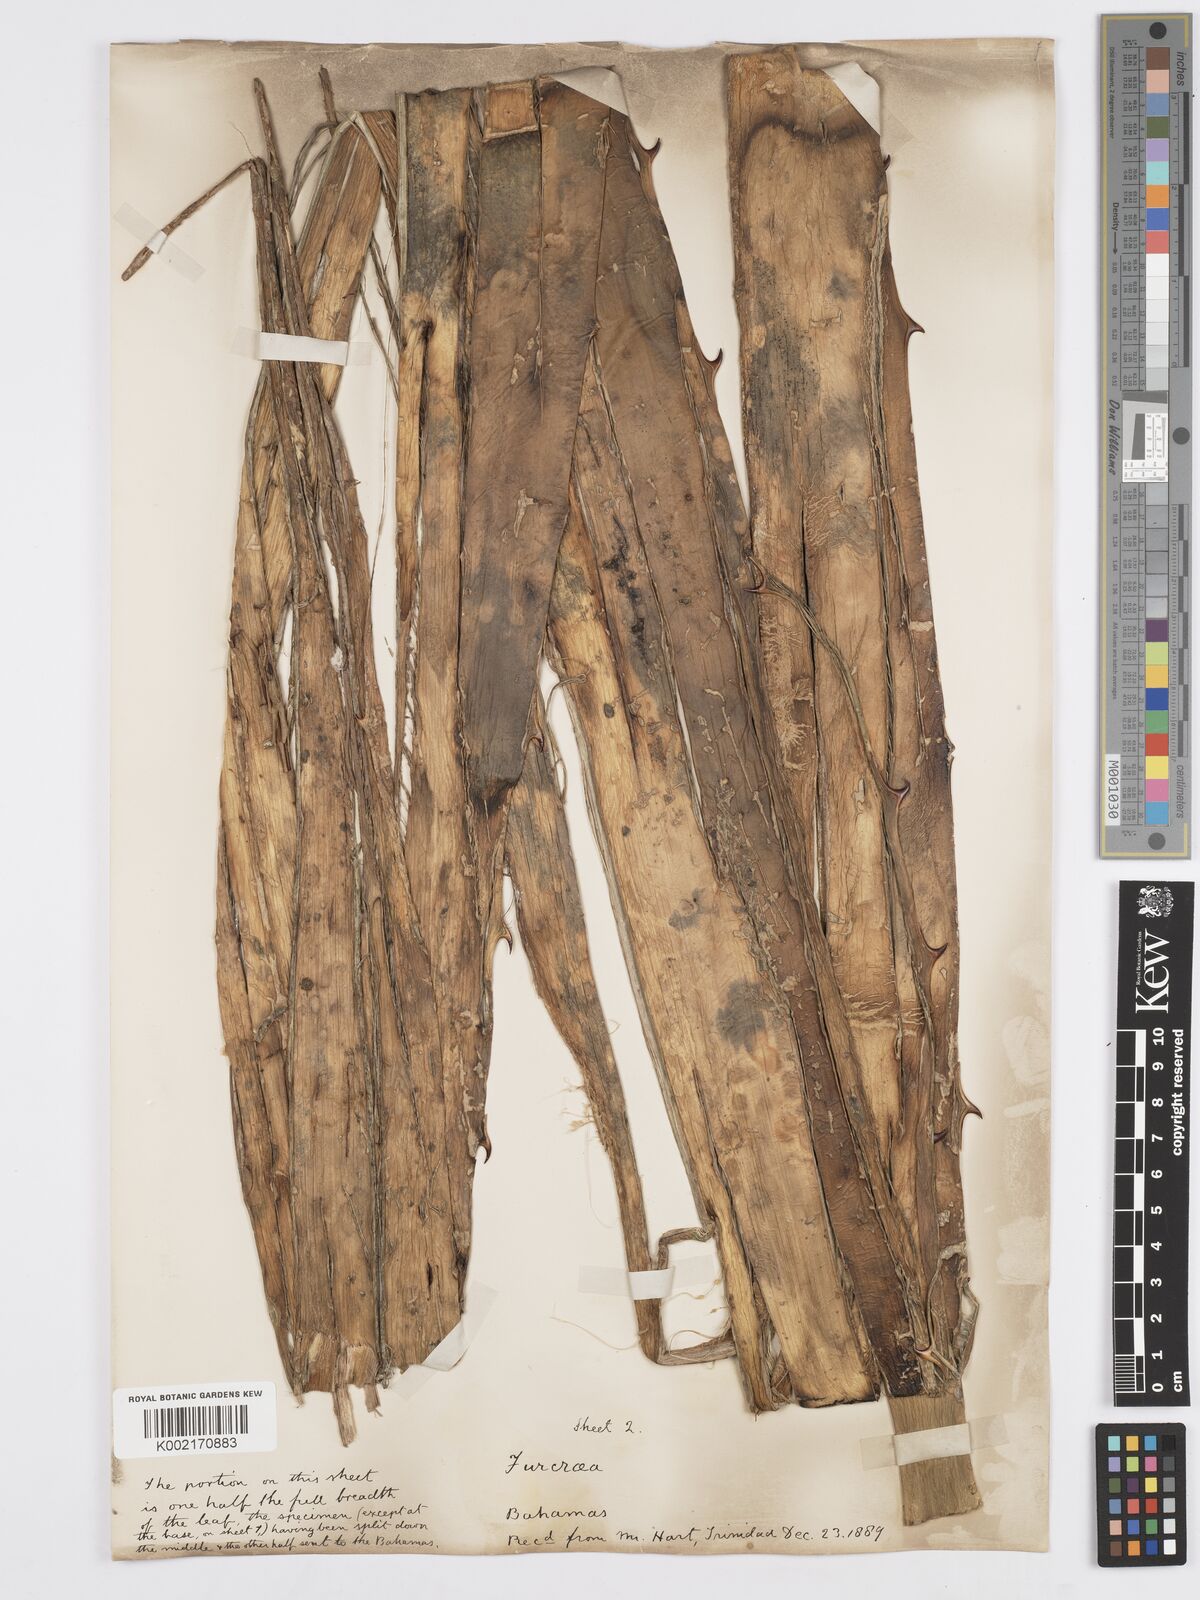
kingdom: Plantae
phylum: Tracheophyta
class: Liliopsida
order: Asparagales
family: Asparagaceae
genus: Furcraea
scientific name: Furcraea hexapetala
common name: Cuban-hemp
